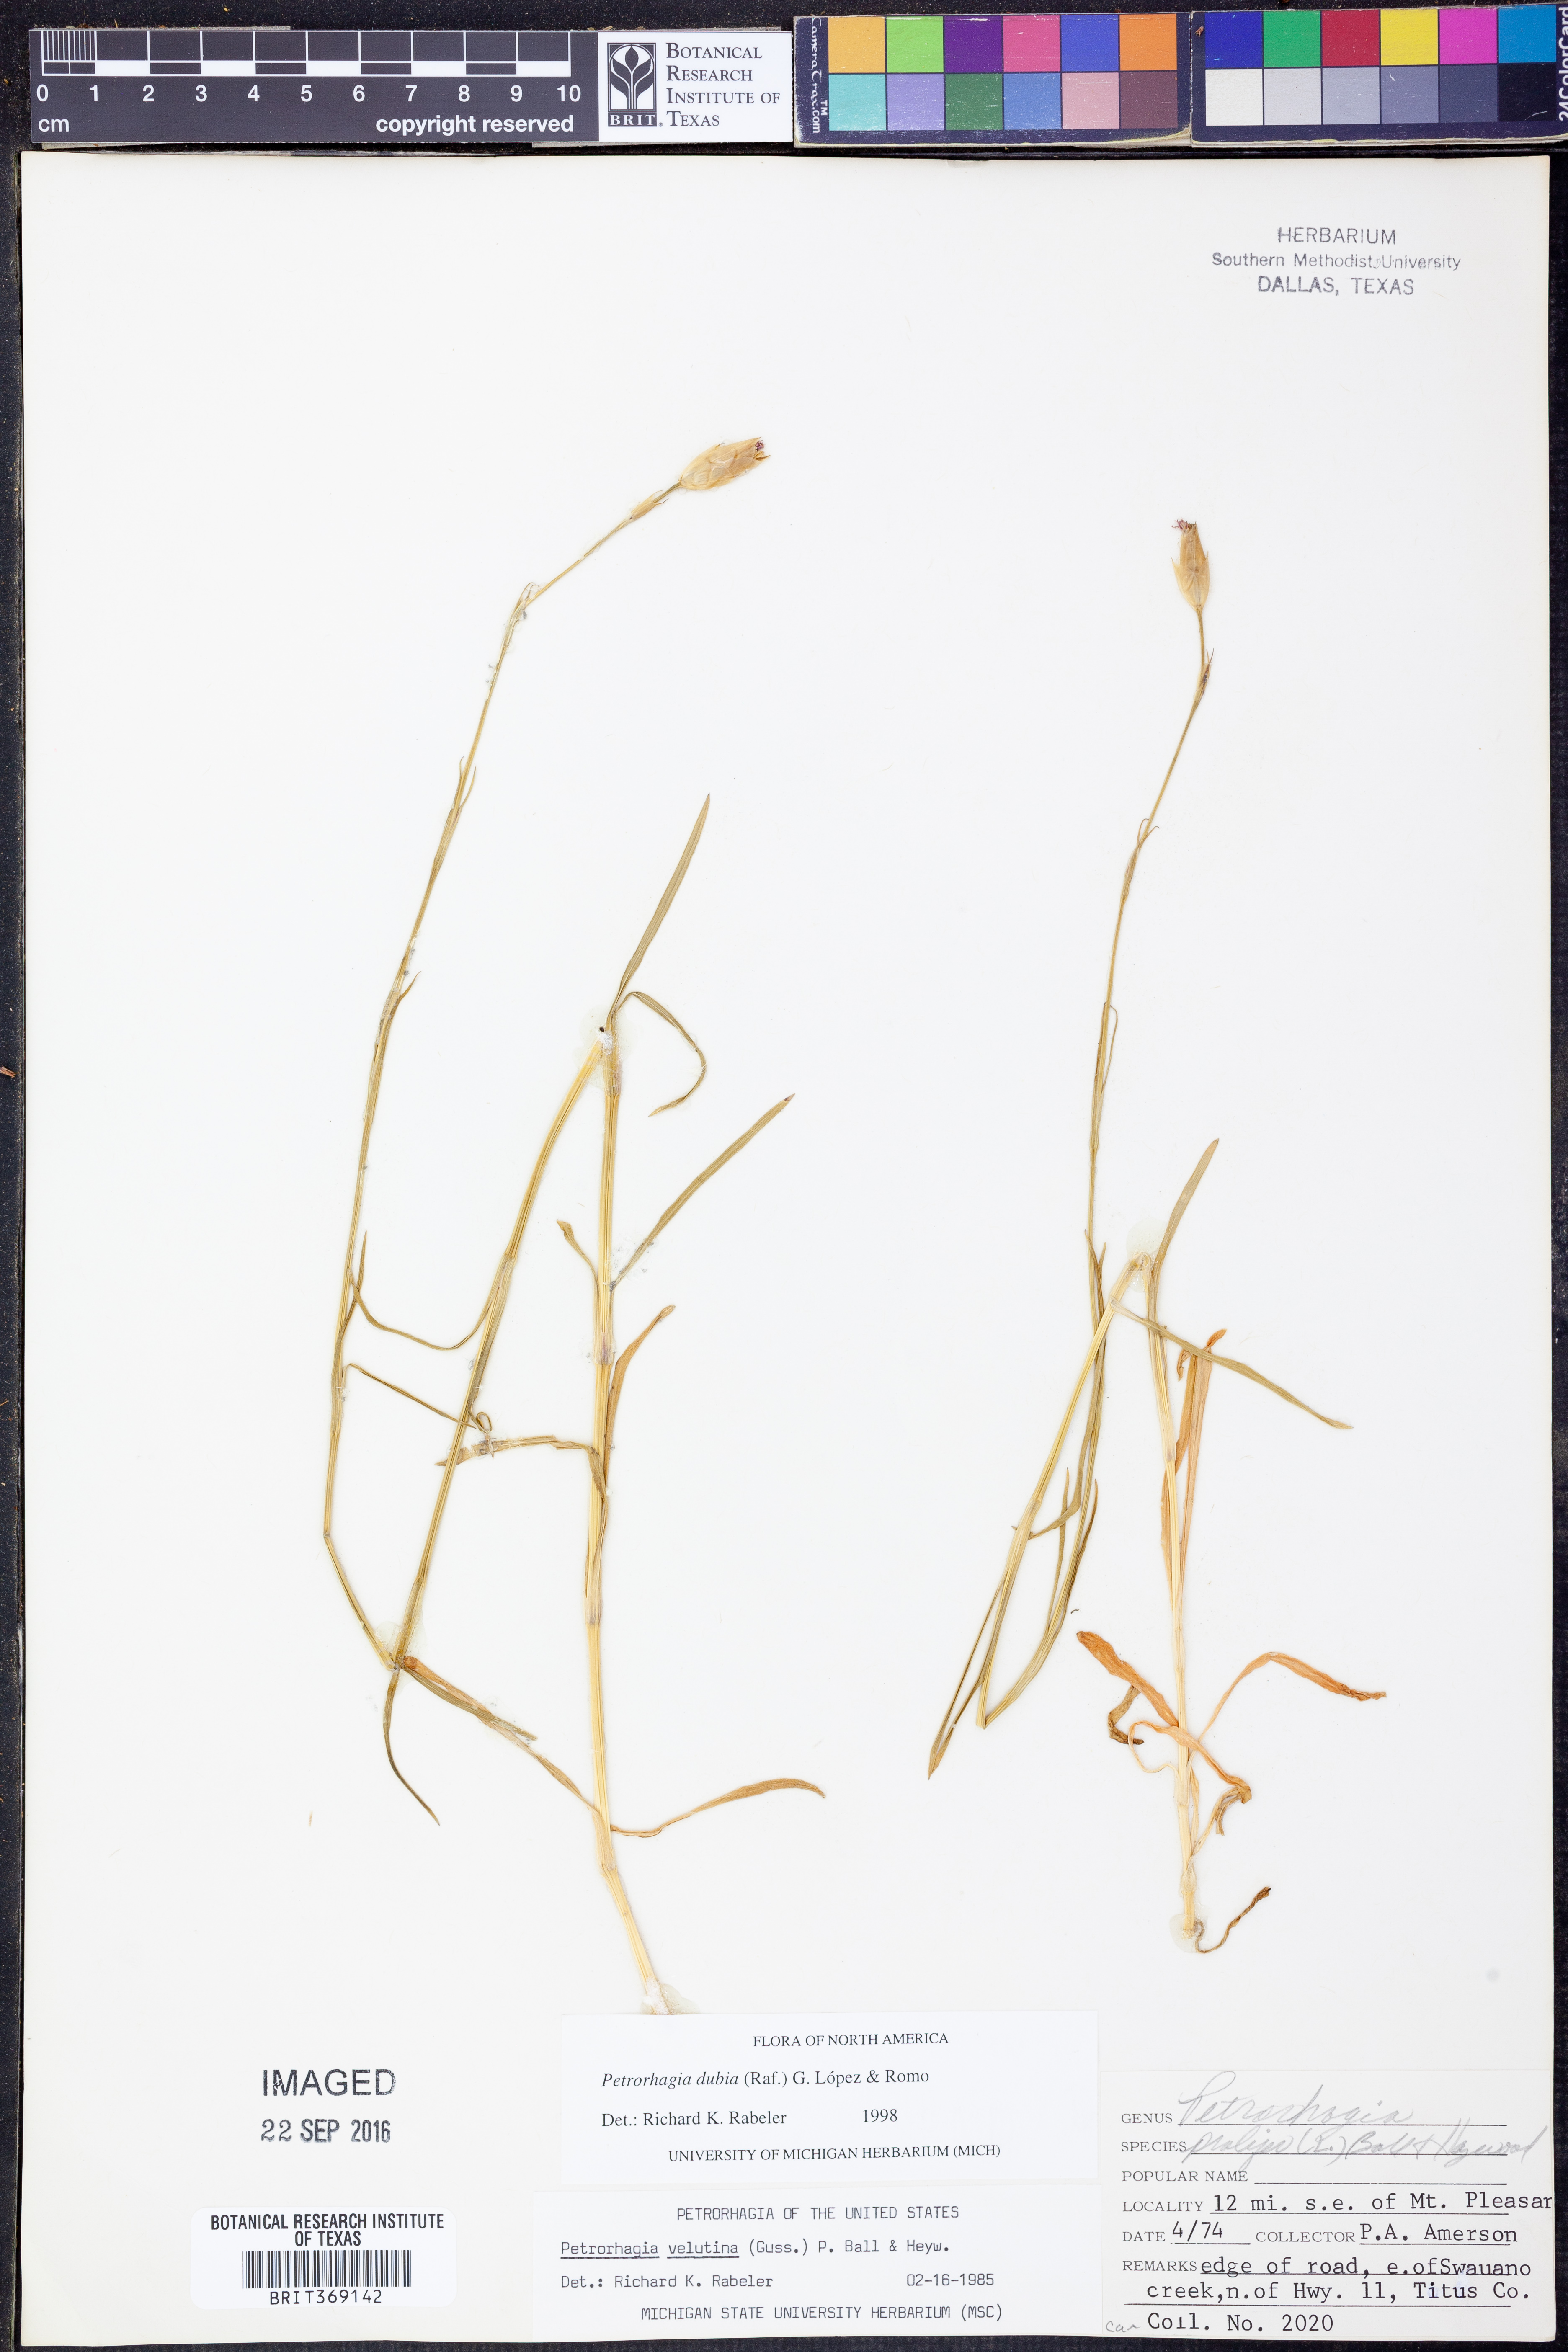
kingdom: Plantae
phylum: Tracheophyta
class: Magnoliopsida
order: Caryophyllales
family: Caryophyllaceae
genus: Petrorhagia
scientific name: Petrorhagia dubia
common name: Hairypink
